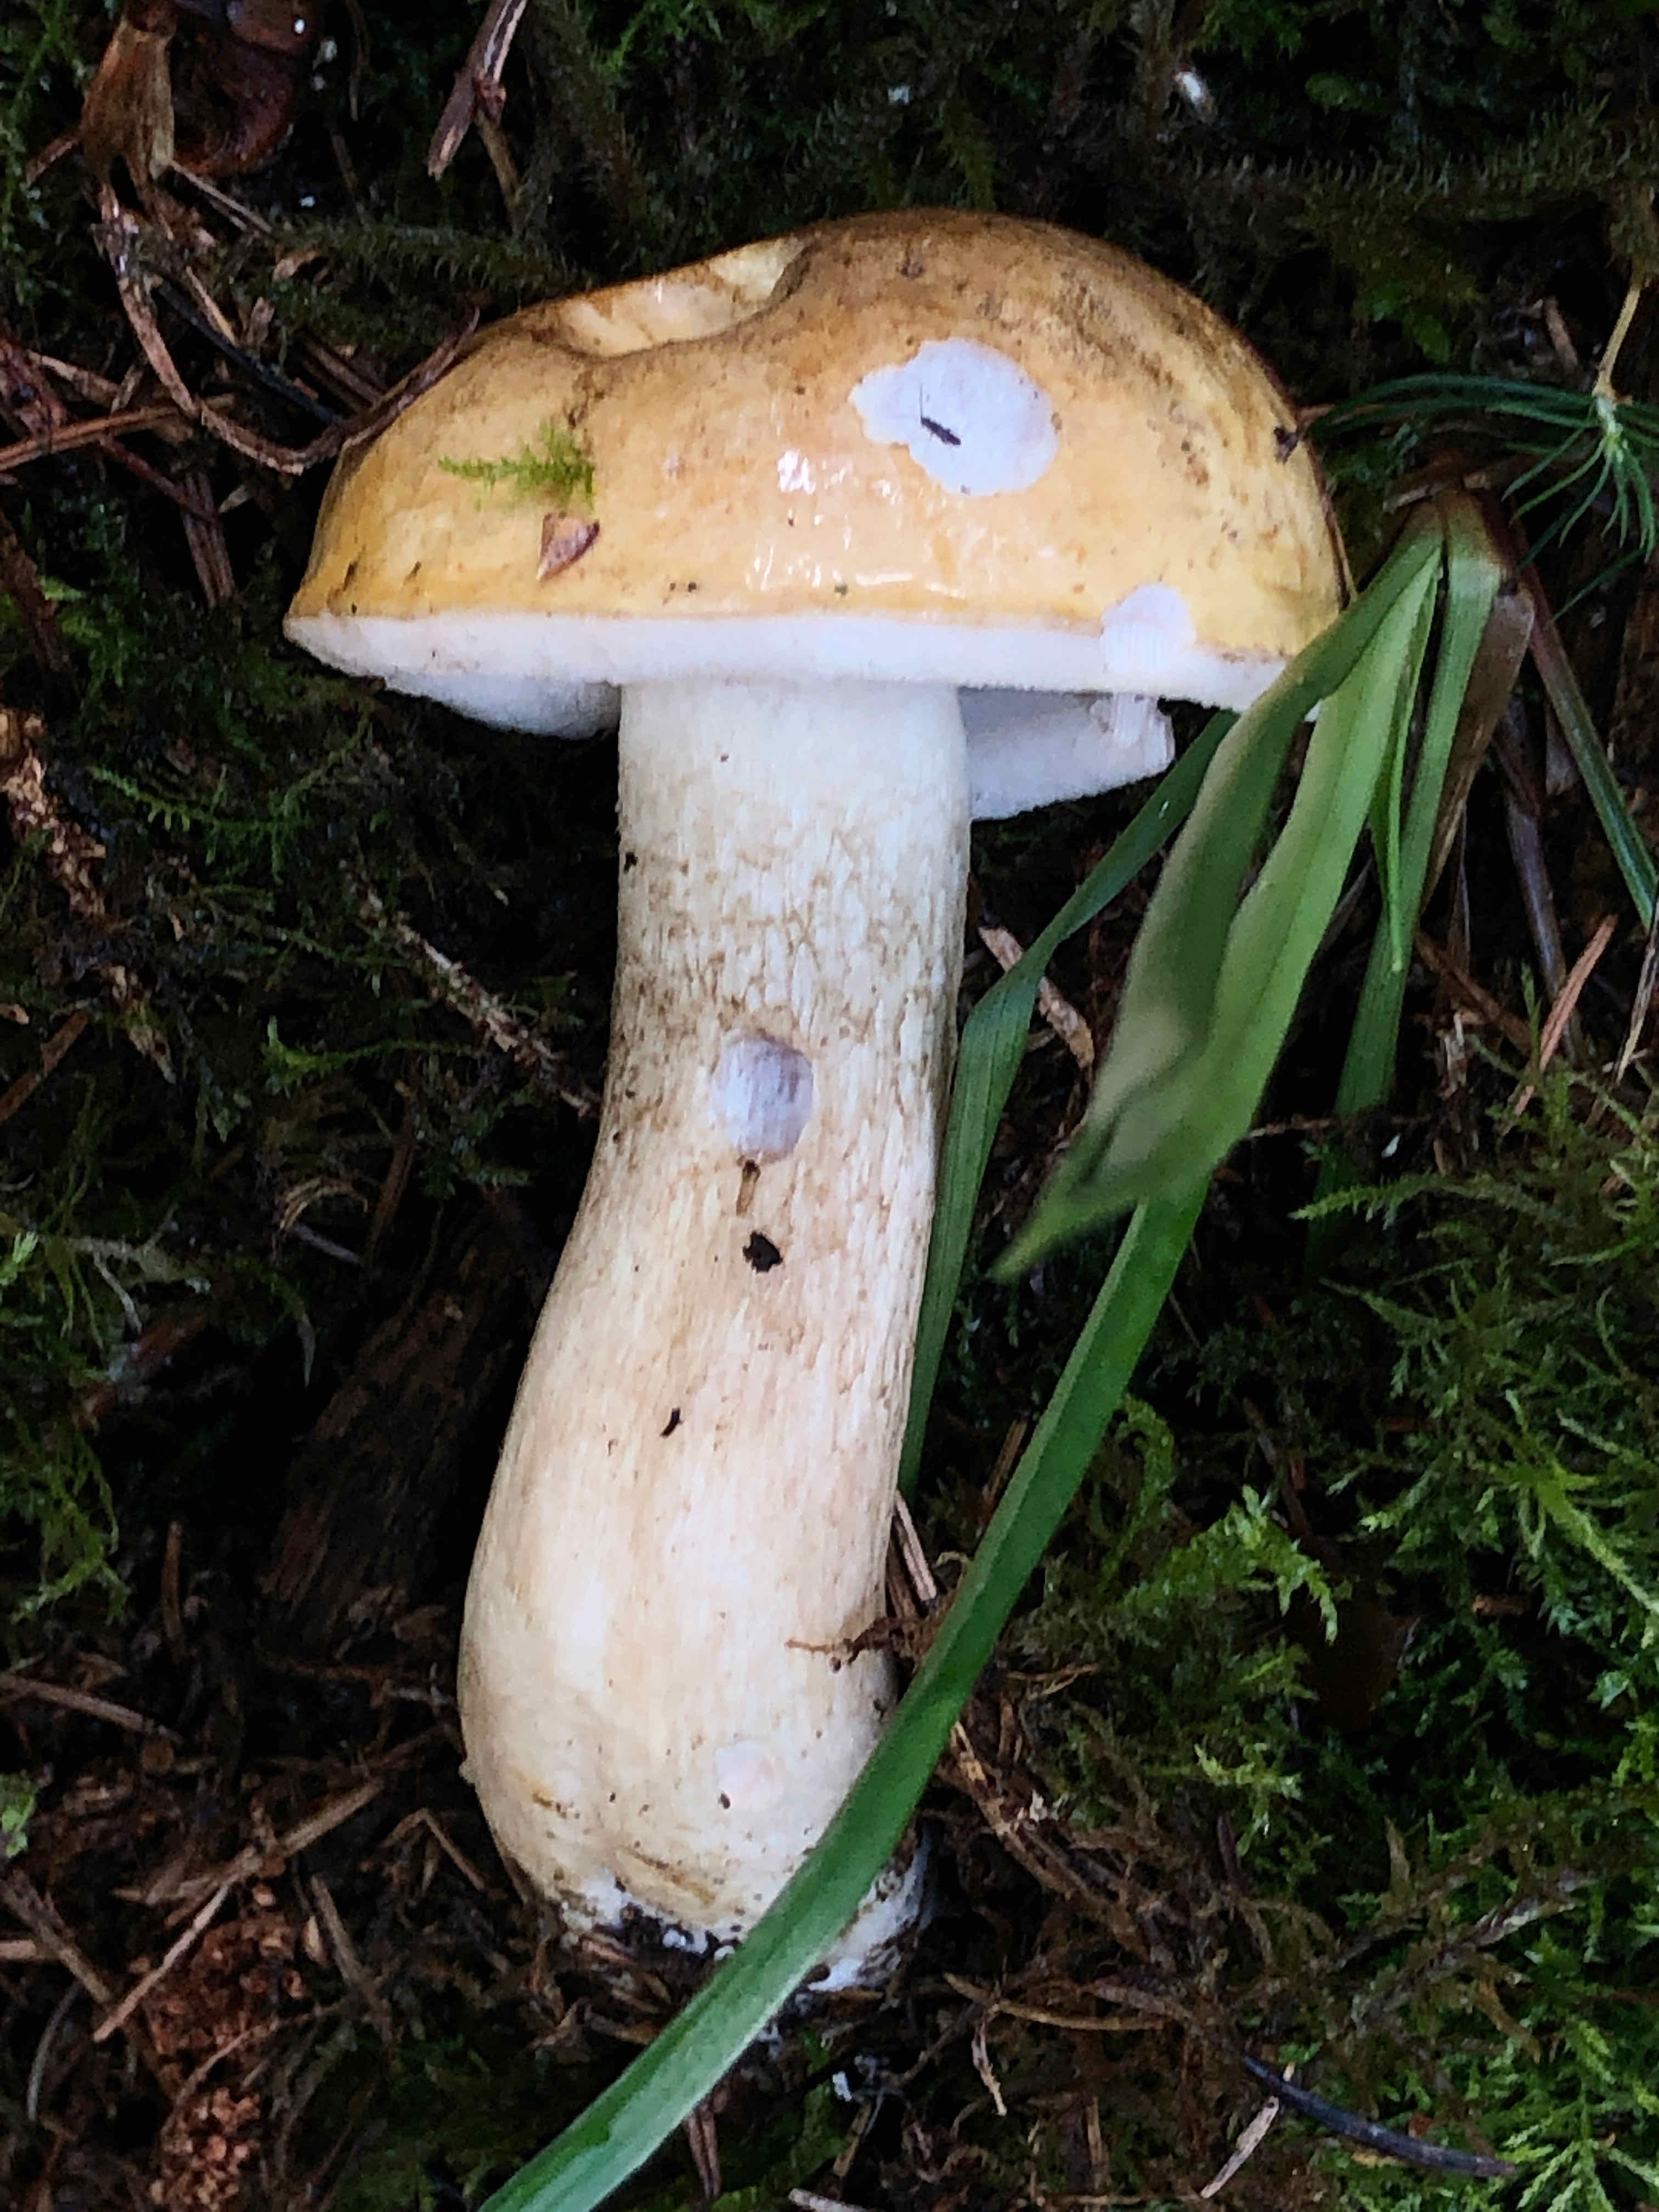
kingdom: Fungi
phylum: Basidiomycota
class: Agaricomycetes
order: Boletales
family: Boletaceae
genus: Tylopilus
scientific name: Tylopilus felleus
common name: galderørhat
